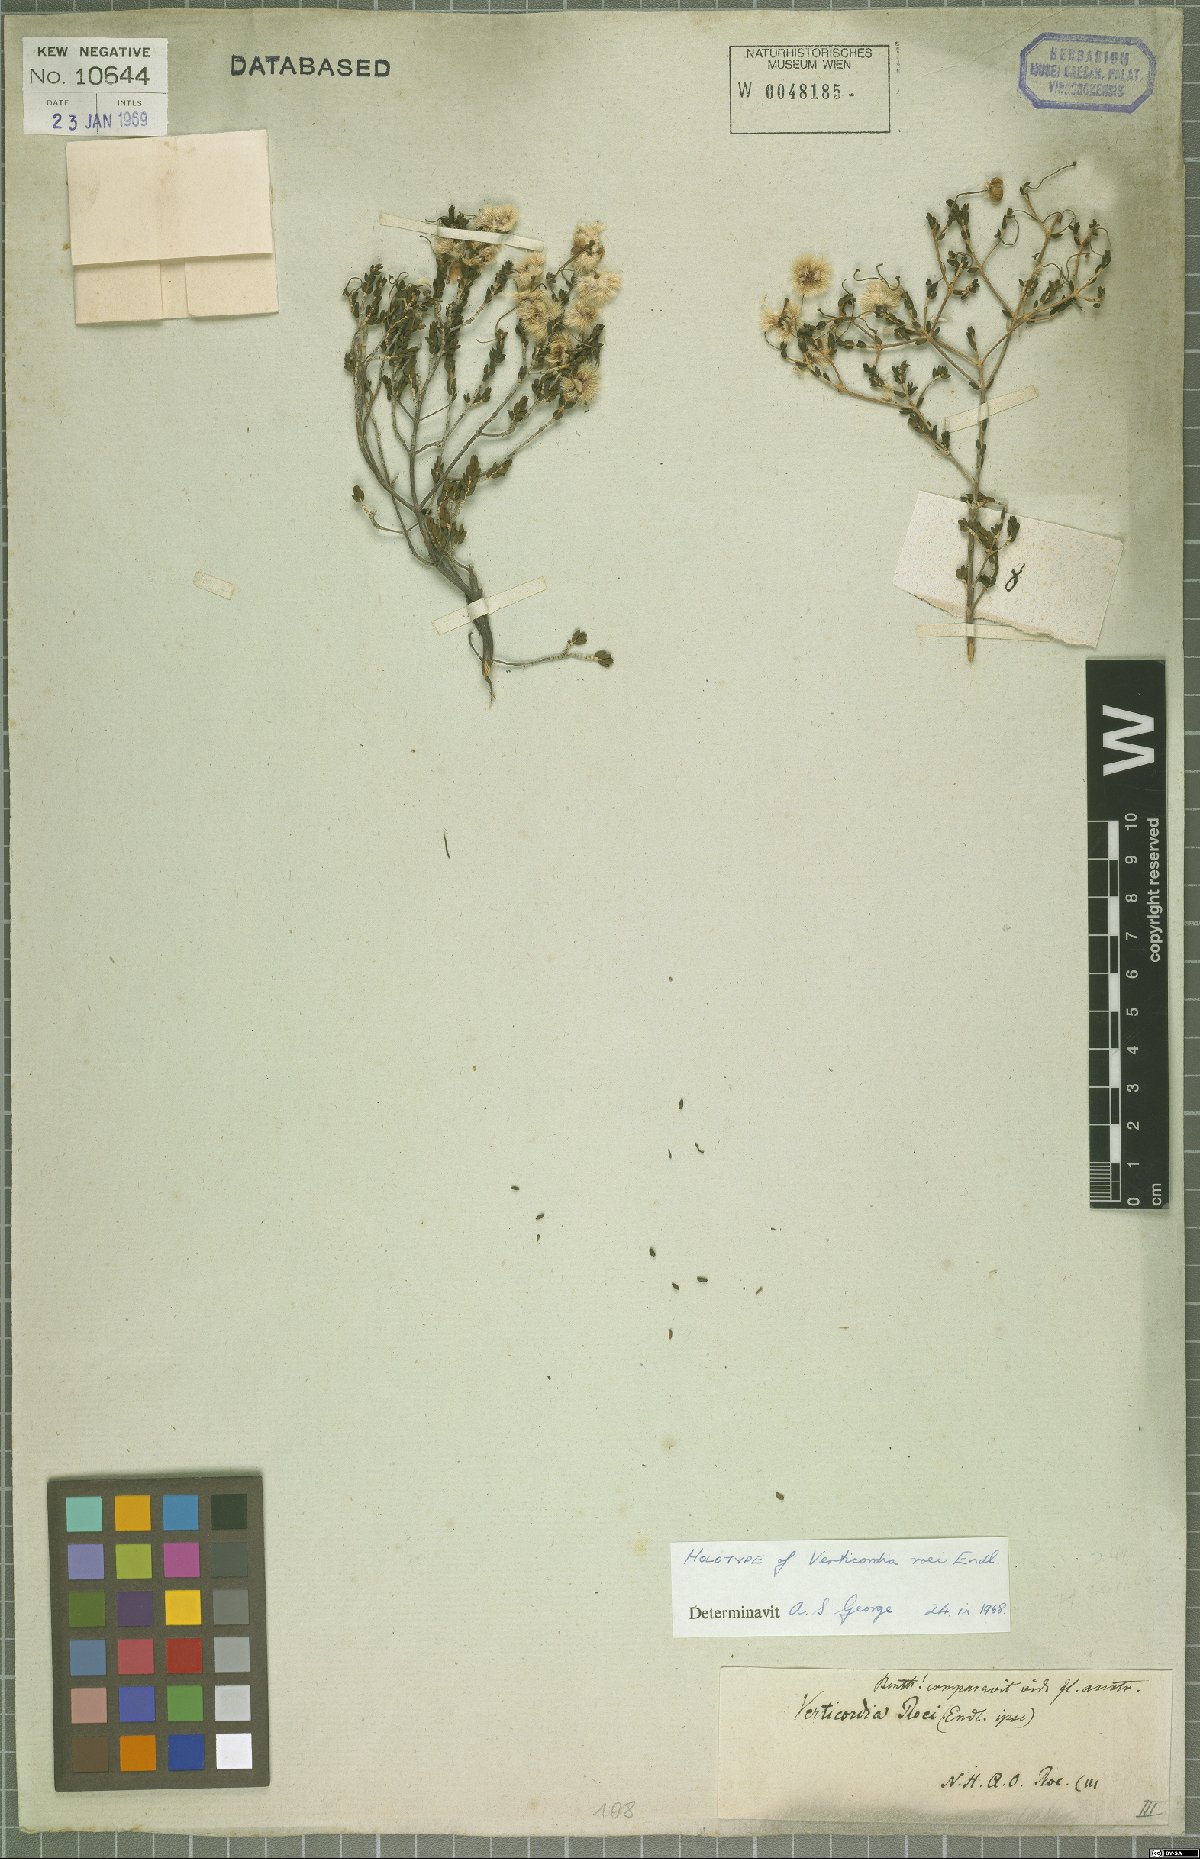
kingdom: Plantae
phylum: Tracheophyta
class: Magnoliopsida
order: Myrtales
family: Myrtaceae
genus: Verticordia
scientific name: Verticordia roei
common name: Roe's feather-flower
